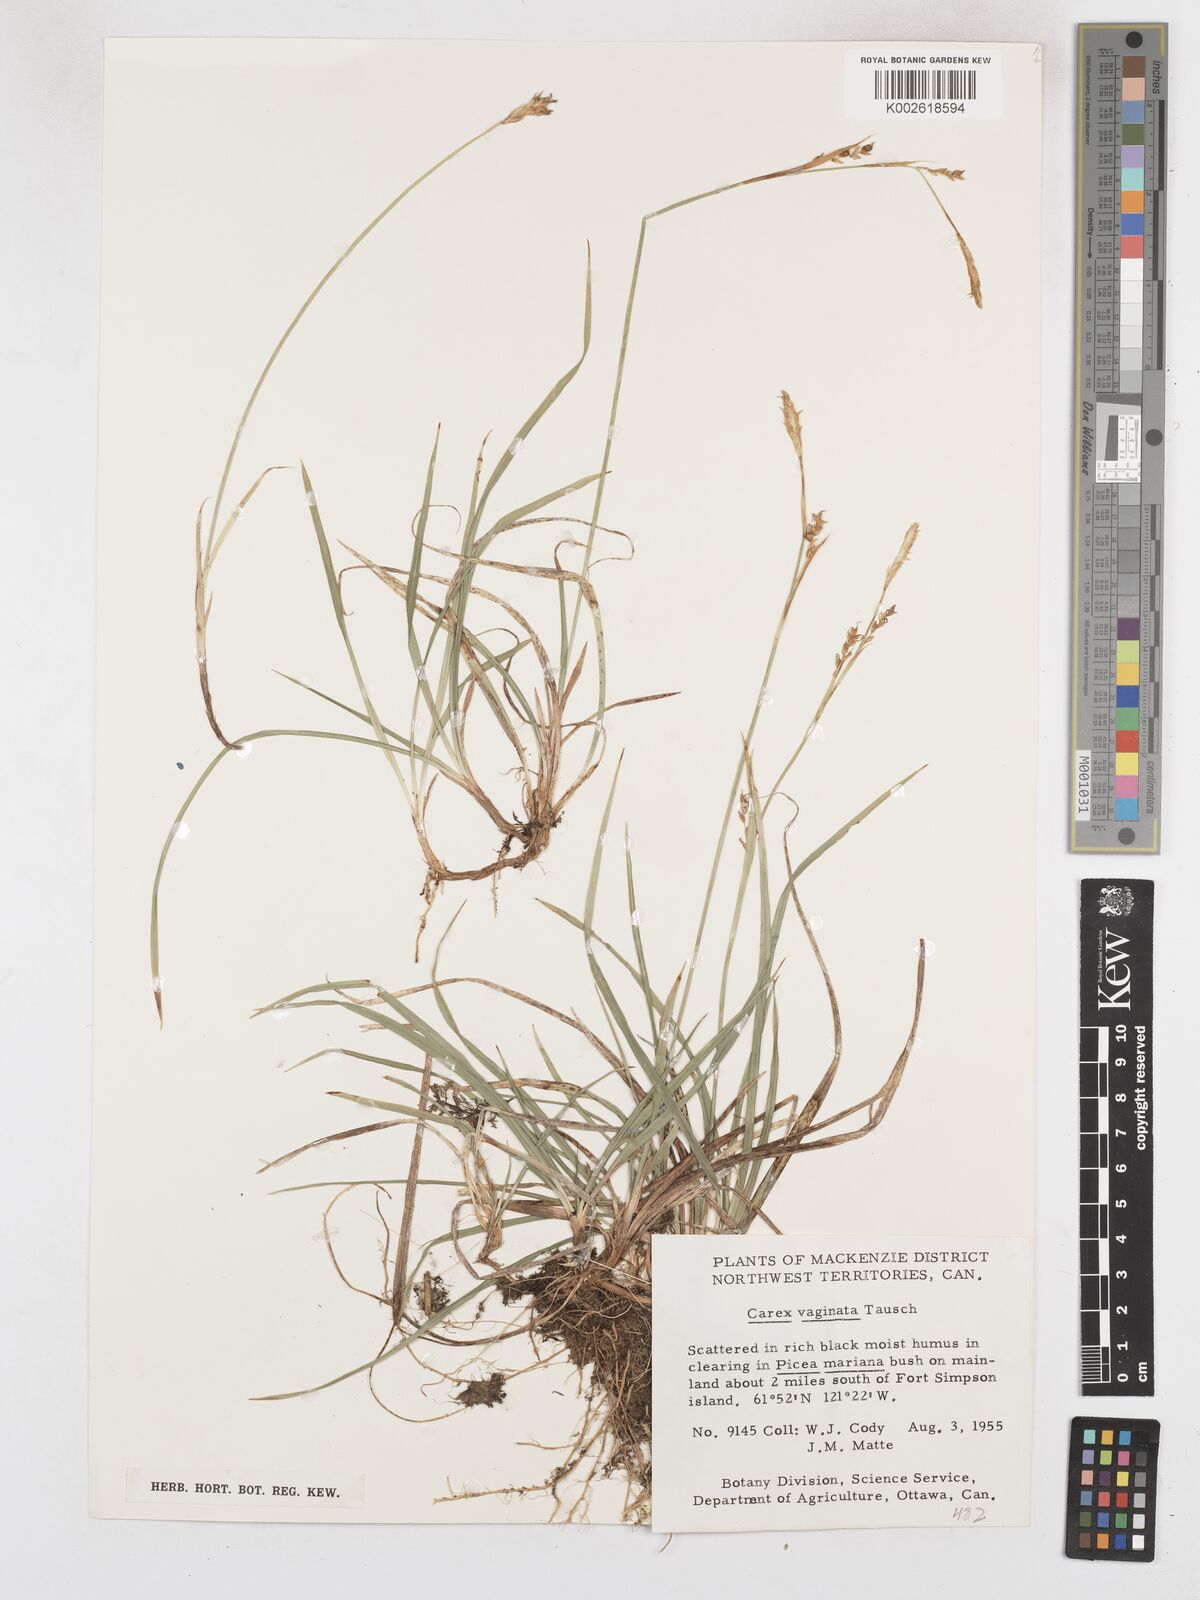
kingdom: Plantae
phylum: Tracheophyta
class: Liliopsida
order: Poales
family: Cyperaceae
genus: Carex
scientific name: Carex vaginata
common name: Sheathed sedge
